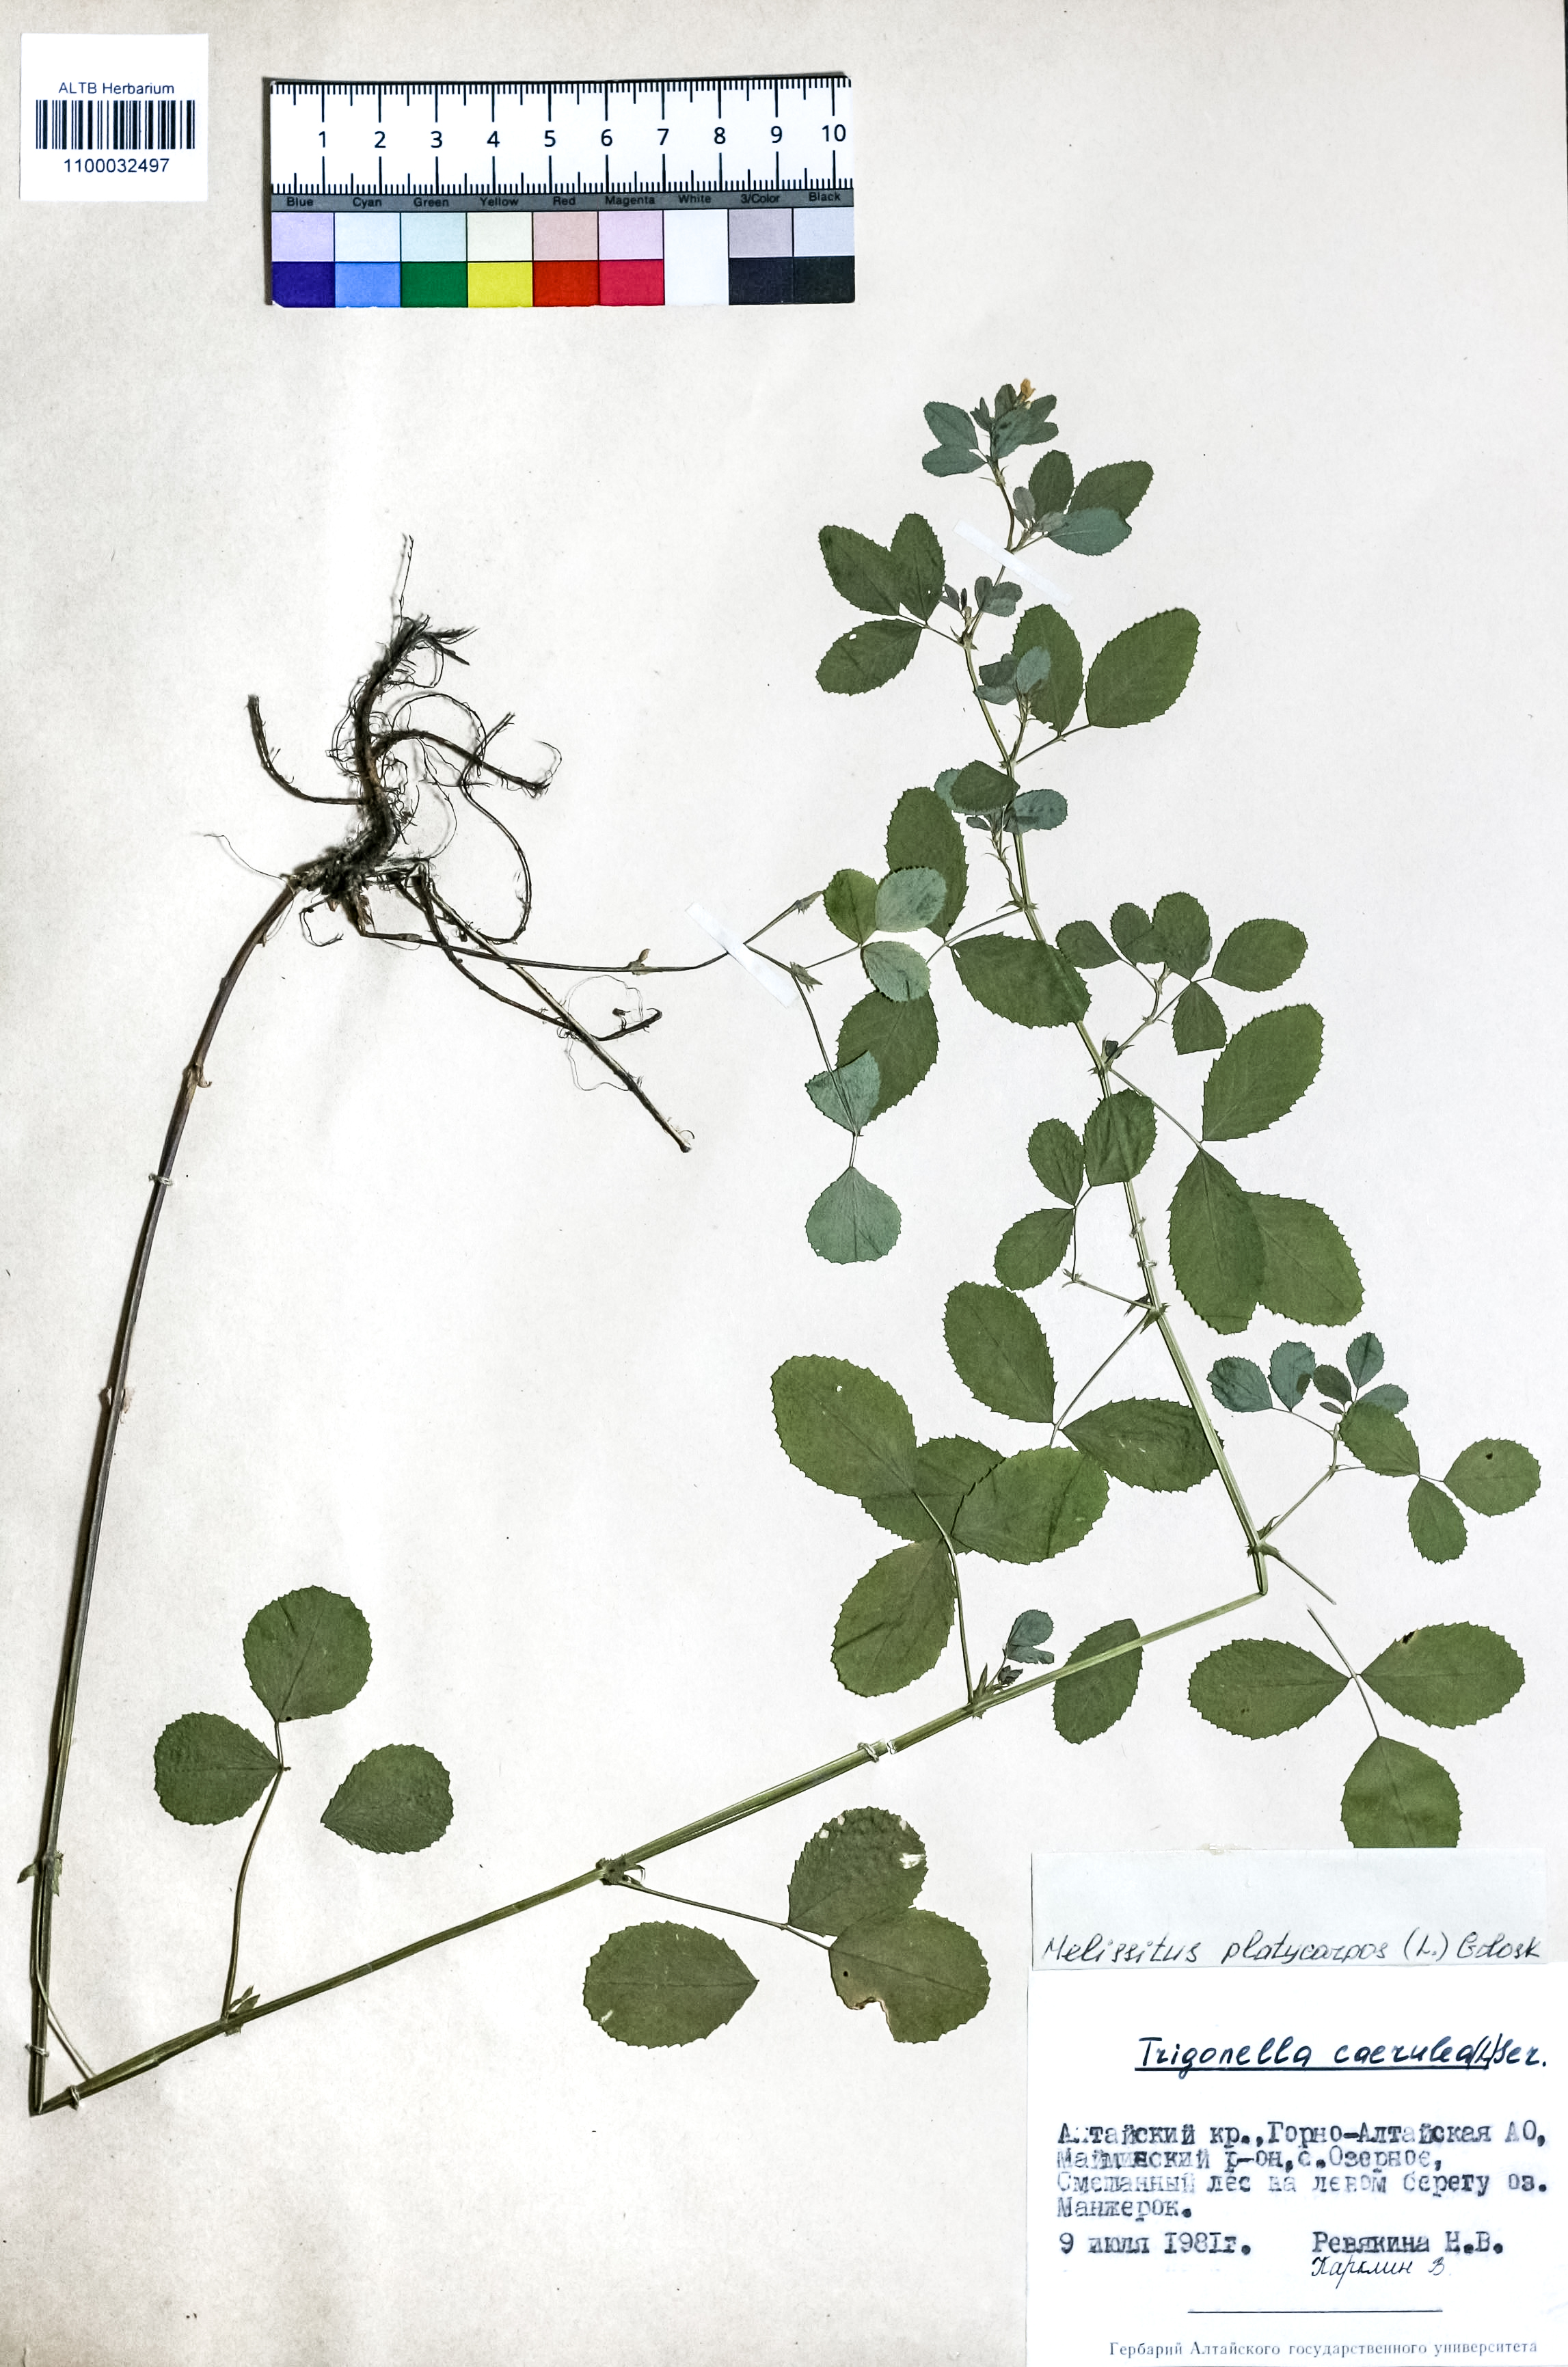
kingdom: Plantae
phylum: Tracheophyta
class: Magnoliopsida
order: Fabales
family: Fabaceae
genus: Medicago
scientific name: Medicago platycarpos
